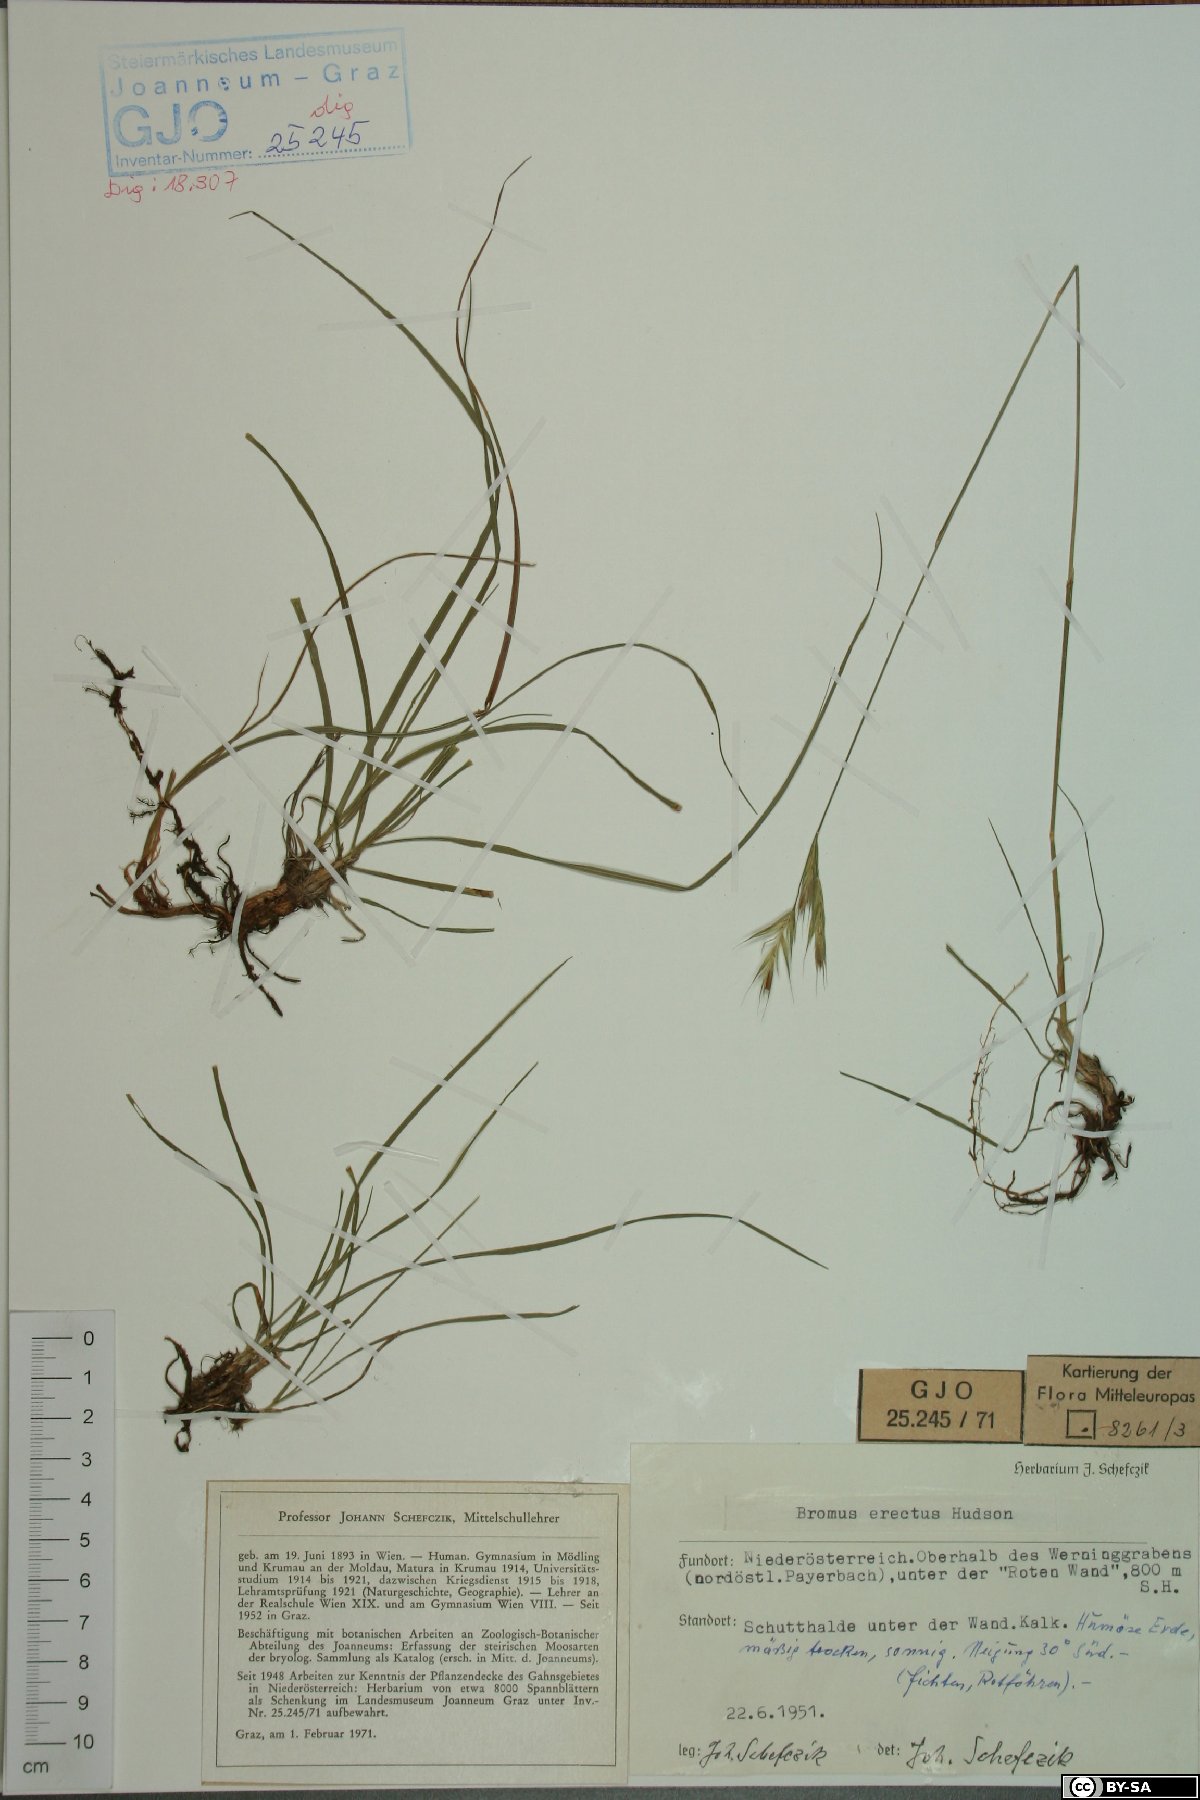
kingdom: Plantae
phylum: Tracheophyta
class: Liliopsida
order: Poales
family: Cyperaceae
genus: Eriophorum
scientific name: Eriophorum vaginatum
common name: Hare's-tail cottongrass
